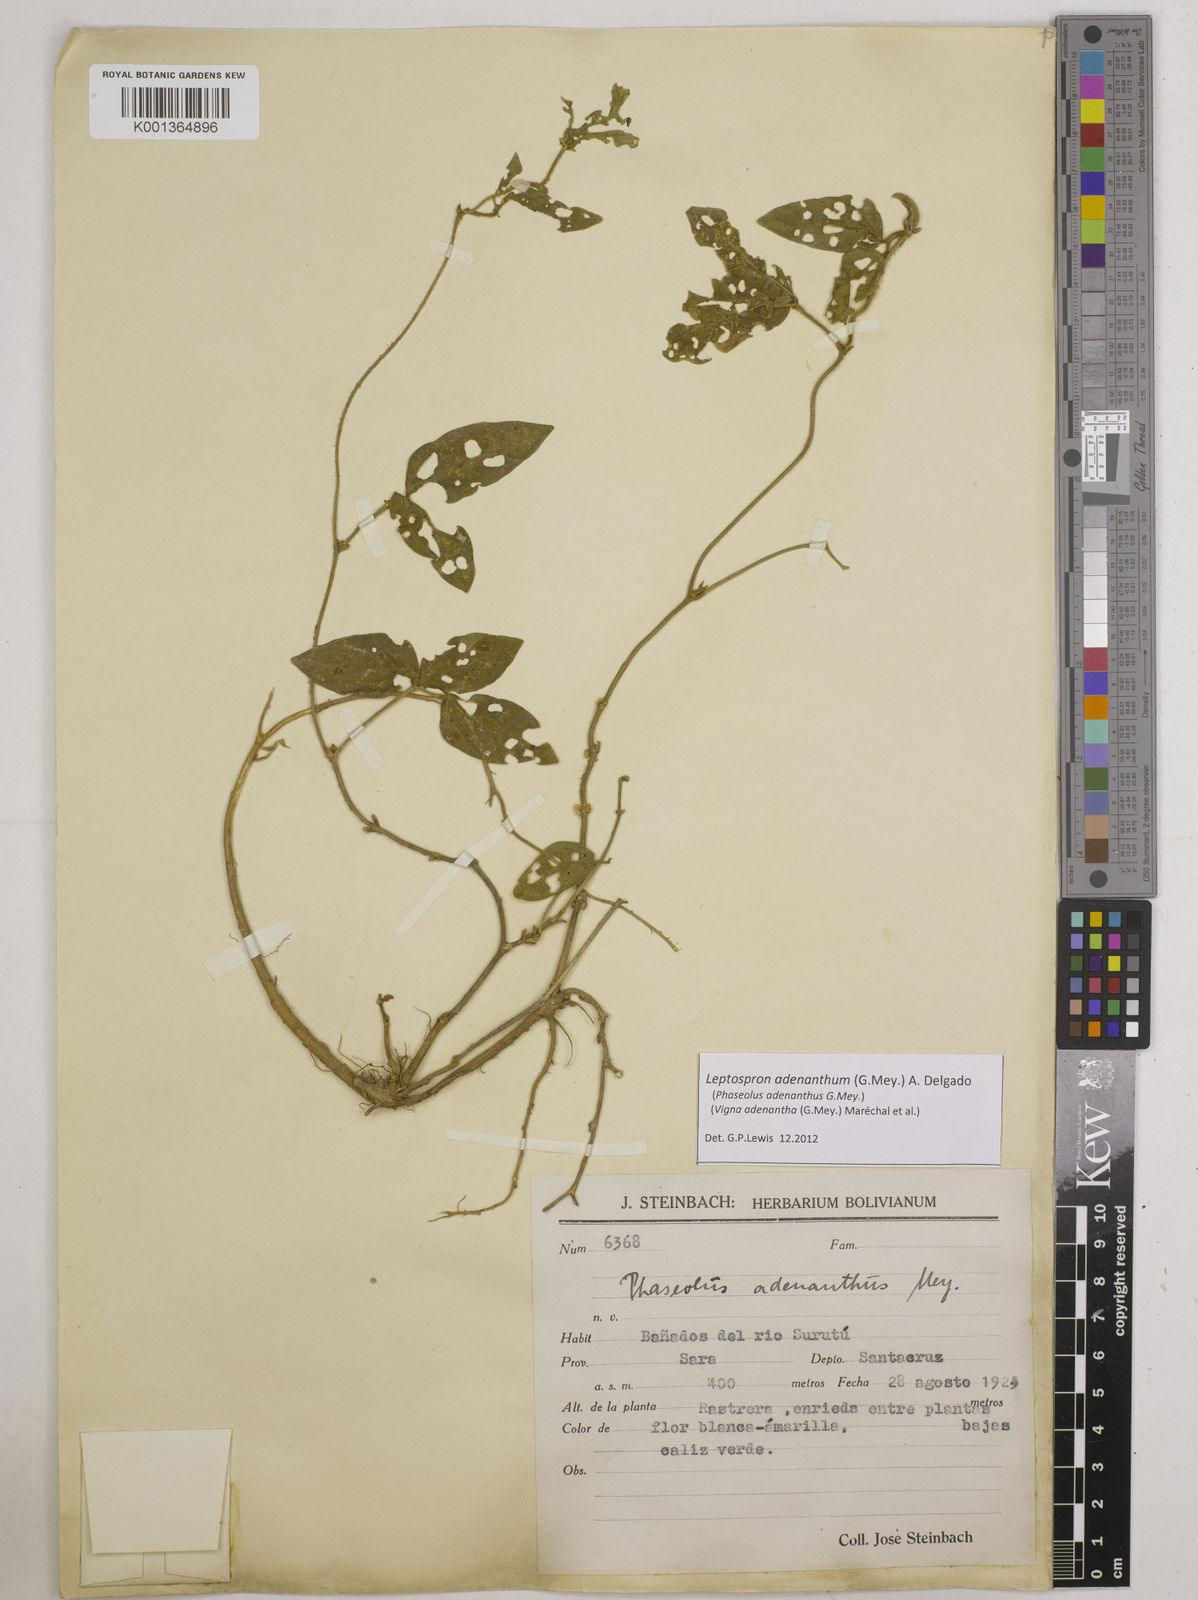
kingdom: Plantae
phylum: Tracheophyta
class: Magnoliopsida
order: Fabales
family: Fabaceae
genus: Leptospron
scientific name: Leptospron adenanthum
